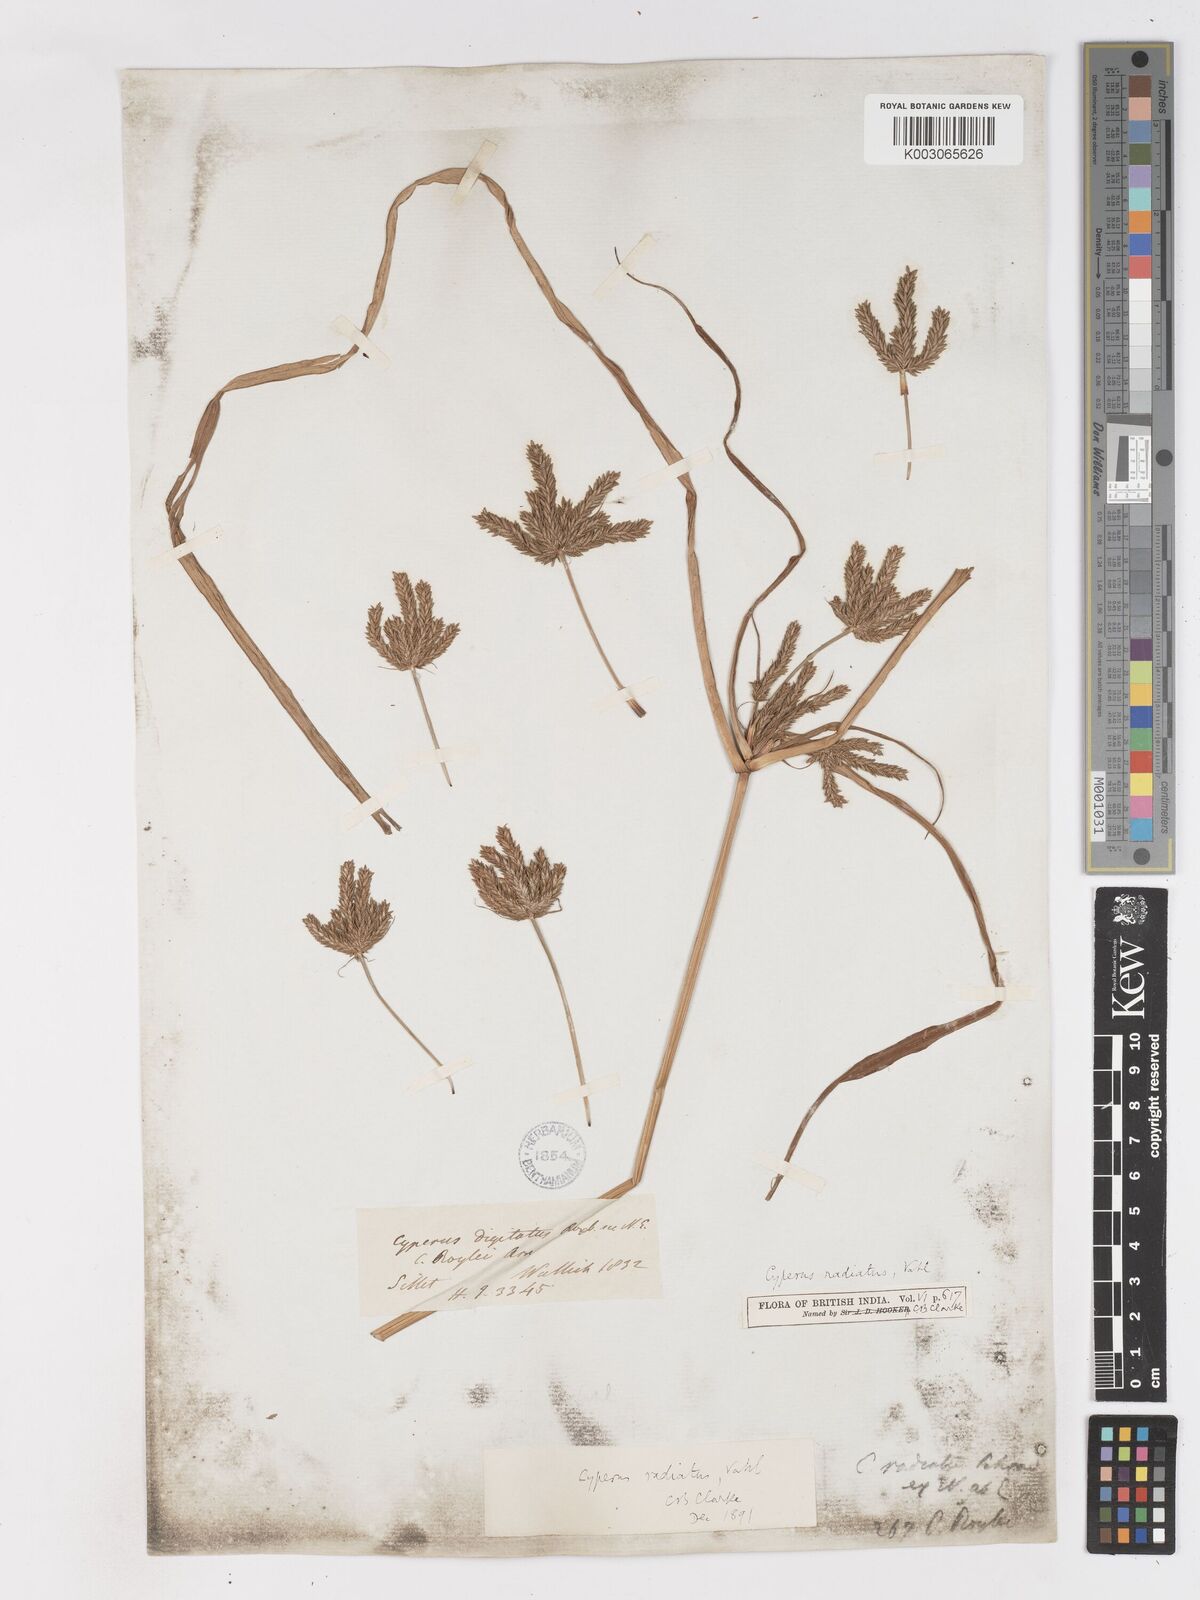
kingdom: Plantae
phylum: Tracheophyta
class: Liliopsida
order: Poales
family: Cyperaceae
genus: Cyperus
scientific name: Cyperus imbricatus
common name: Shingle flatsedge
